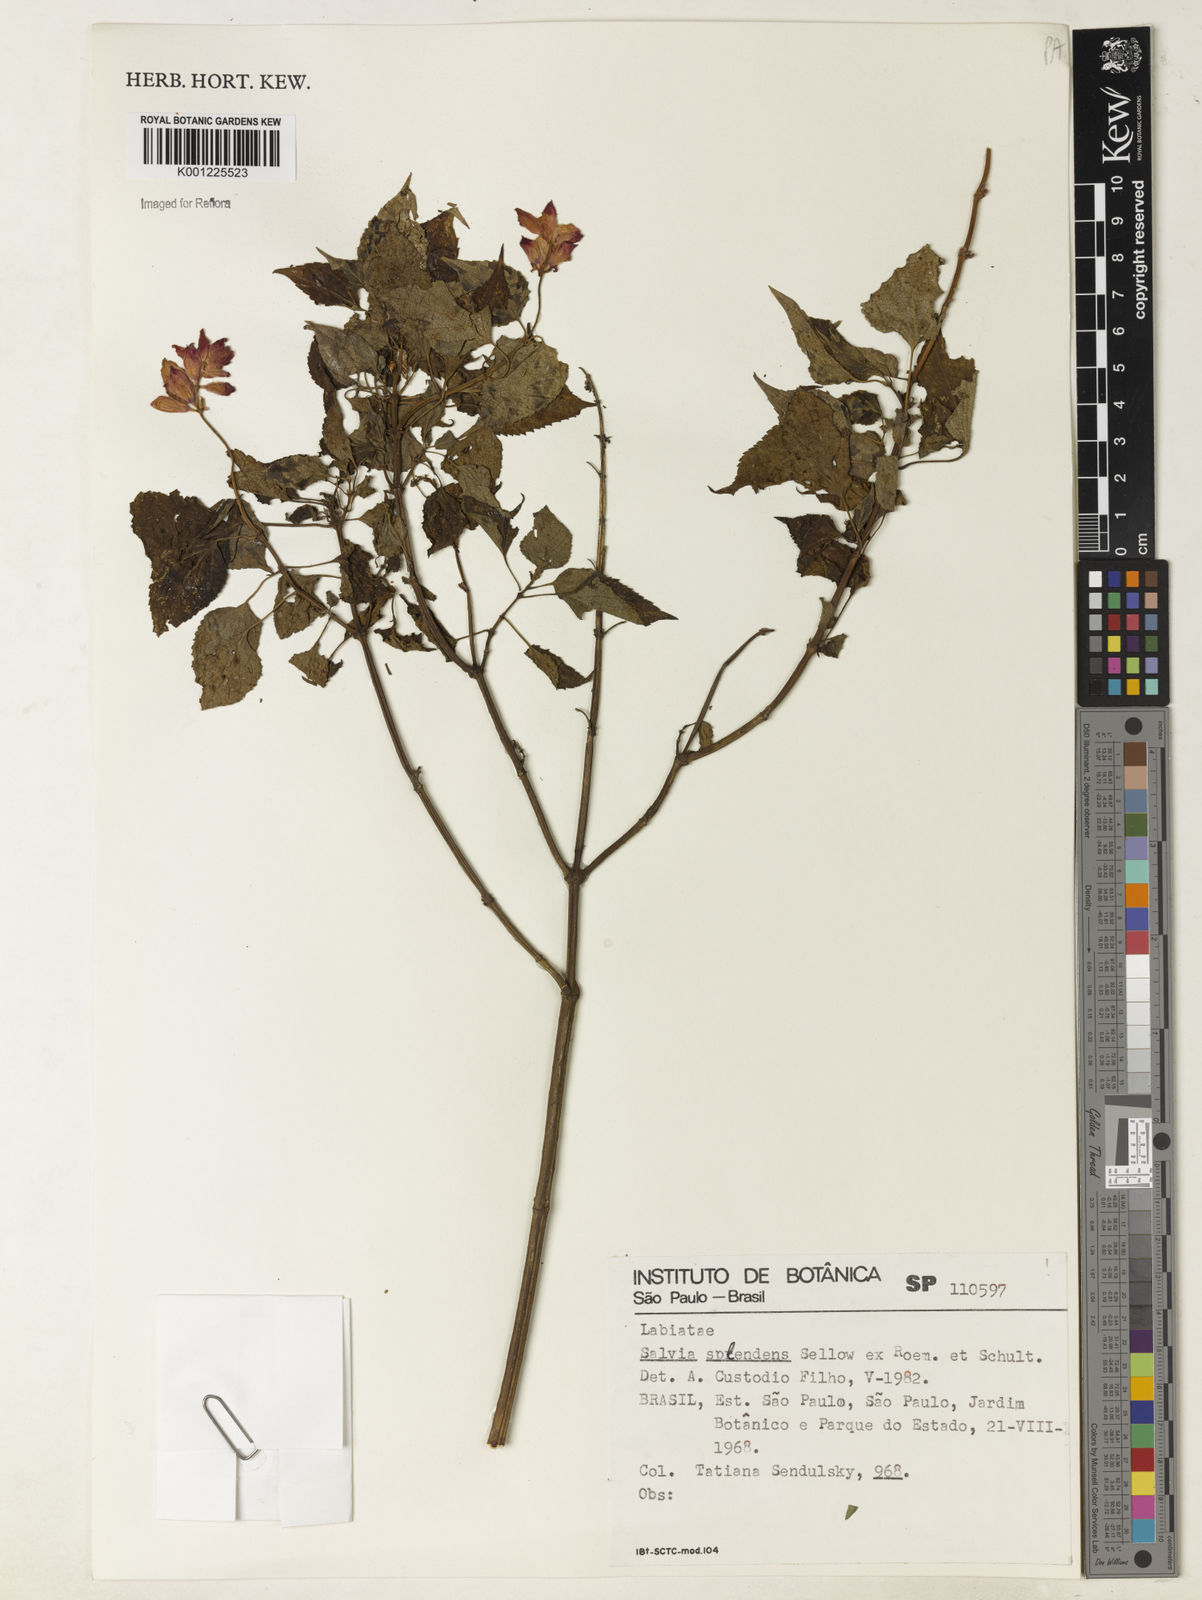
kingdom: Plantae
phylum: Tracheophyta
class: Magnoliopsida
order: Lamiales
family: Lamiaceae
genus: Salvia
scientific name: Salvia
